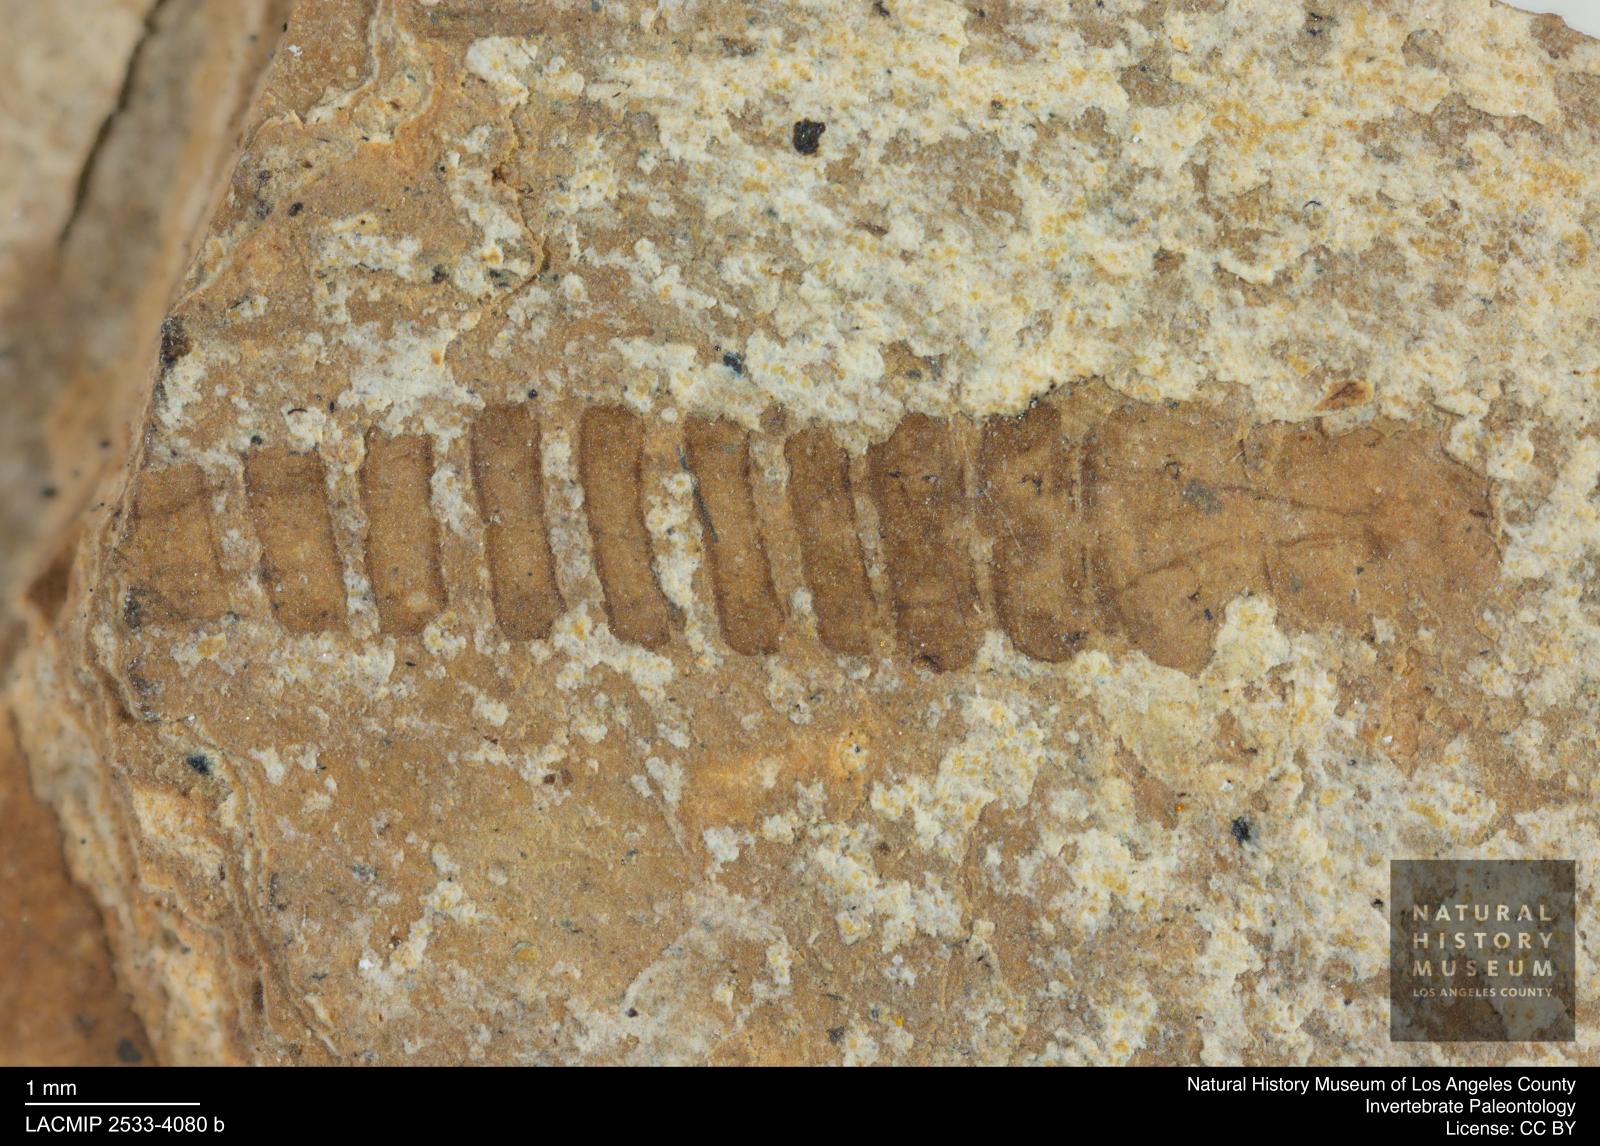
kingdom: Animalia
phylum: Arthropoda
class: Insecta
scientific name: Insecta
